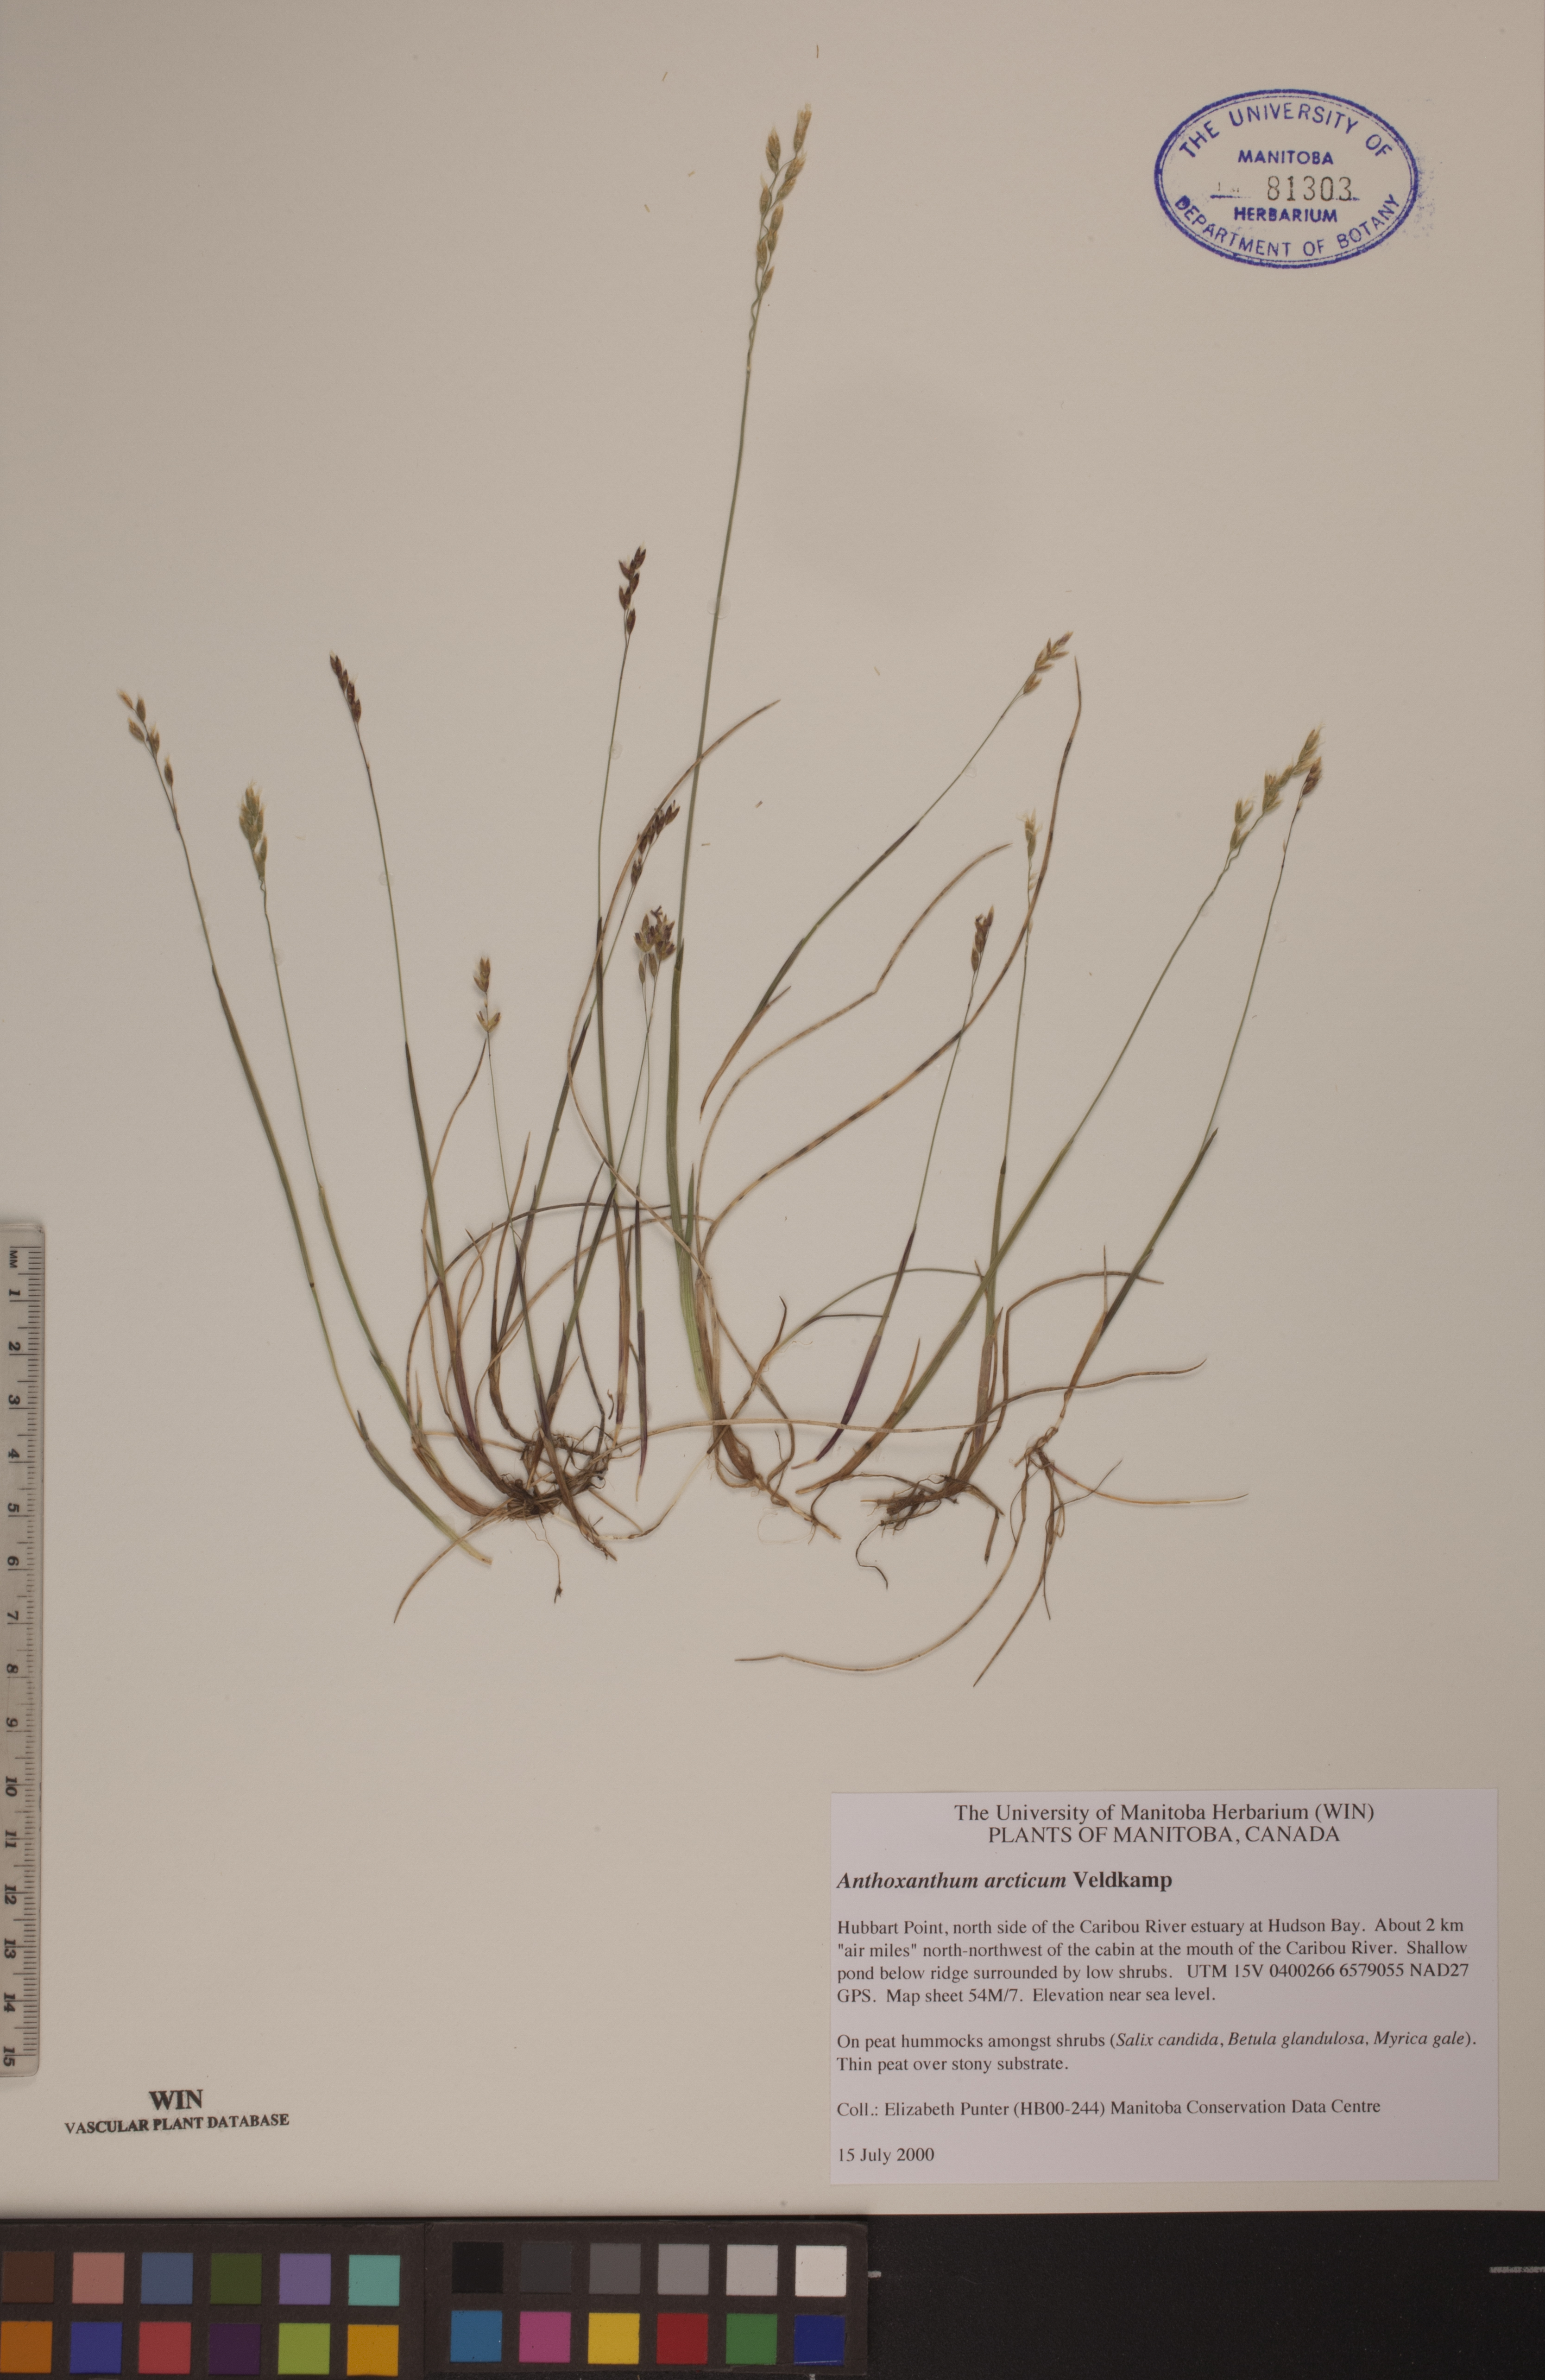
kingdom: Plantae
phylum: Tracheophyta
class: Liliopsida
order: Poales
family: Poaceae
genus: Anthoxanthum
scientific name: Anthoxanthum arcticum
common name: Arctic sweetgrass
